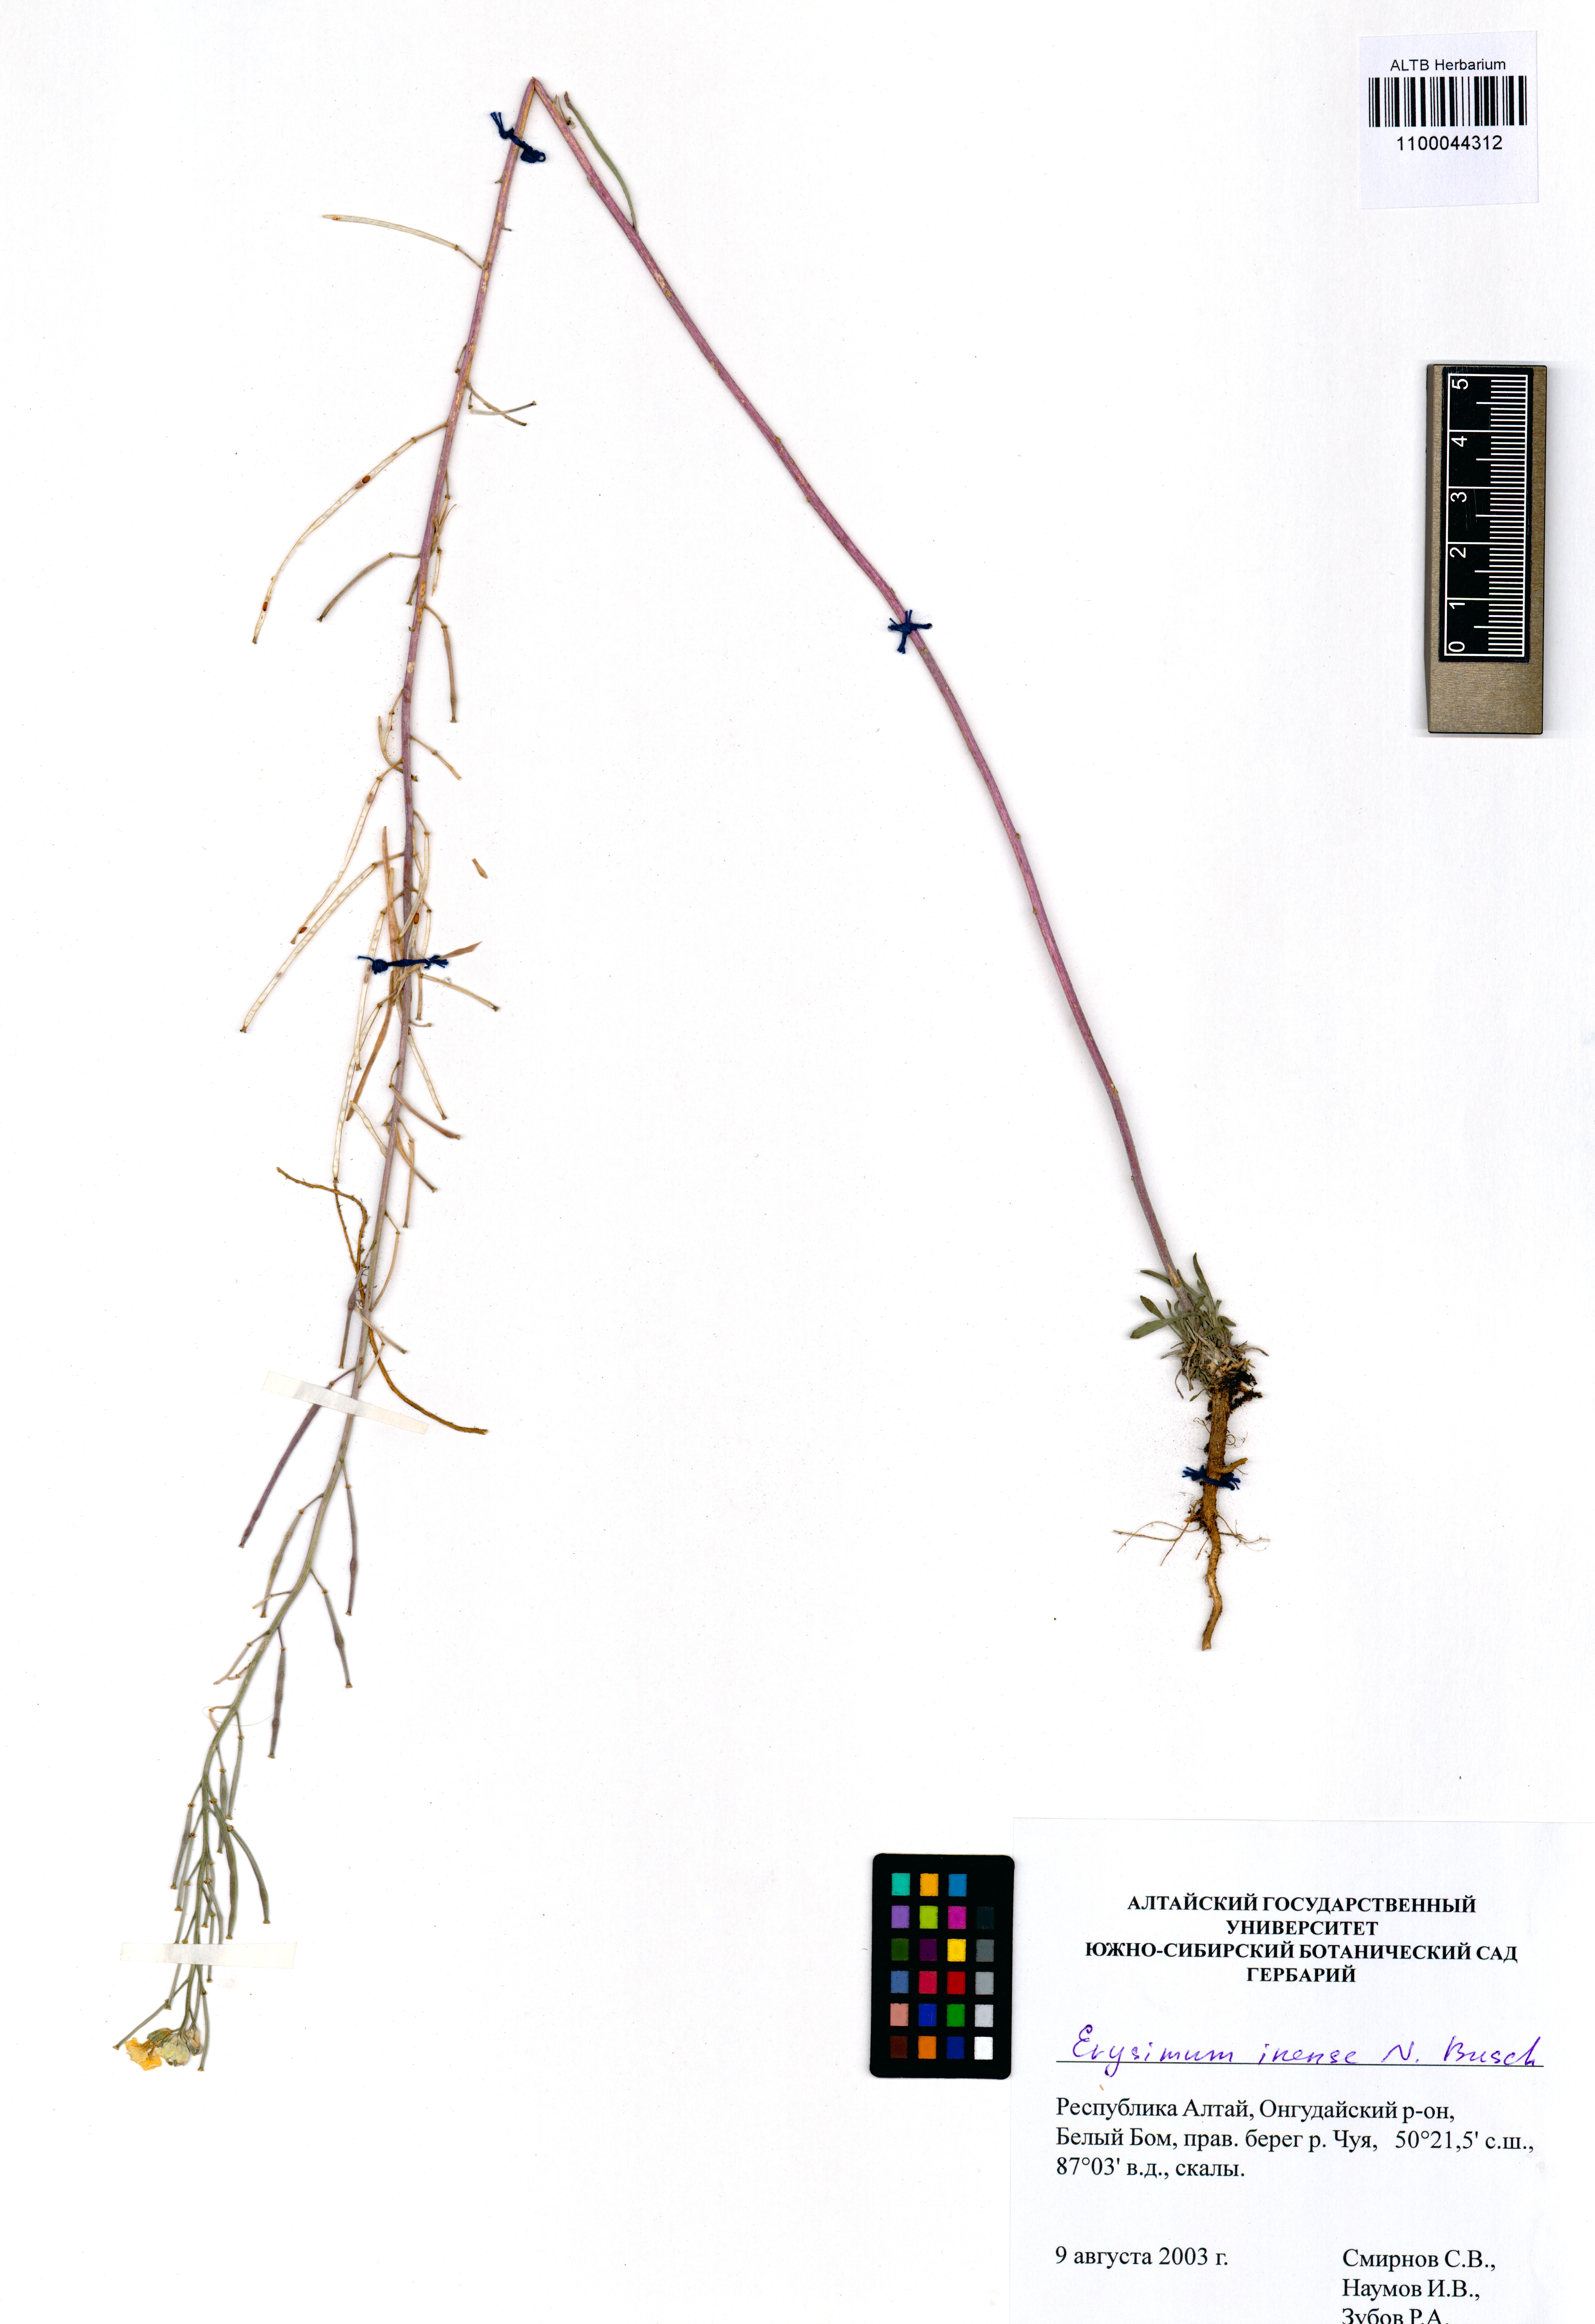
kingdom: Plantae
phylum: Tracheophyta
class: Magnoliopsida
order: Brassicales
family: Brassicaceae
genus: Erysimum
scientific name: Erysimum inense
